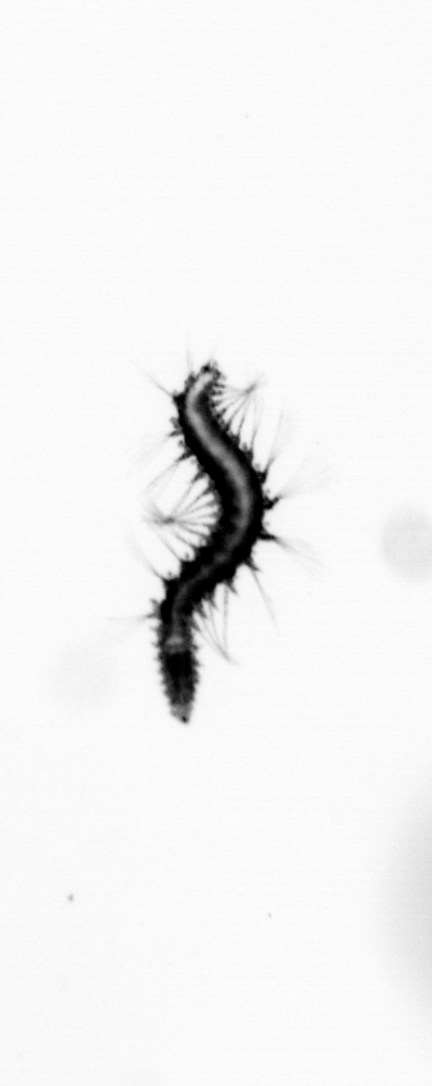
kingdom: Animalia
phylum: Annelida
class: Polychaeta
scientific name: Polychaeta
